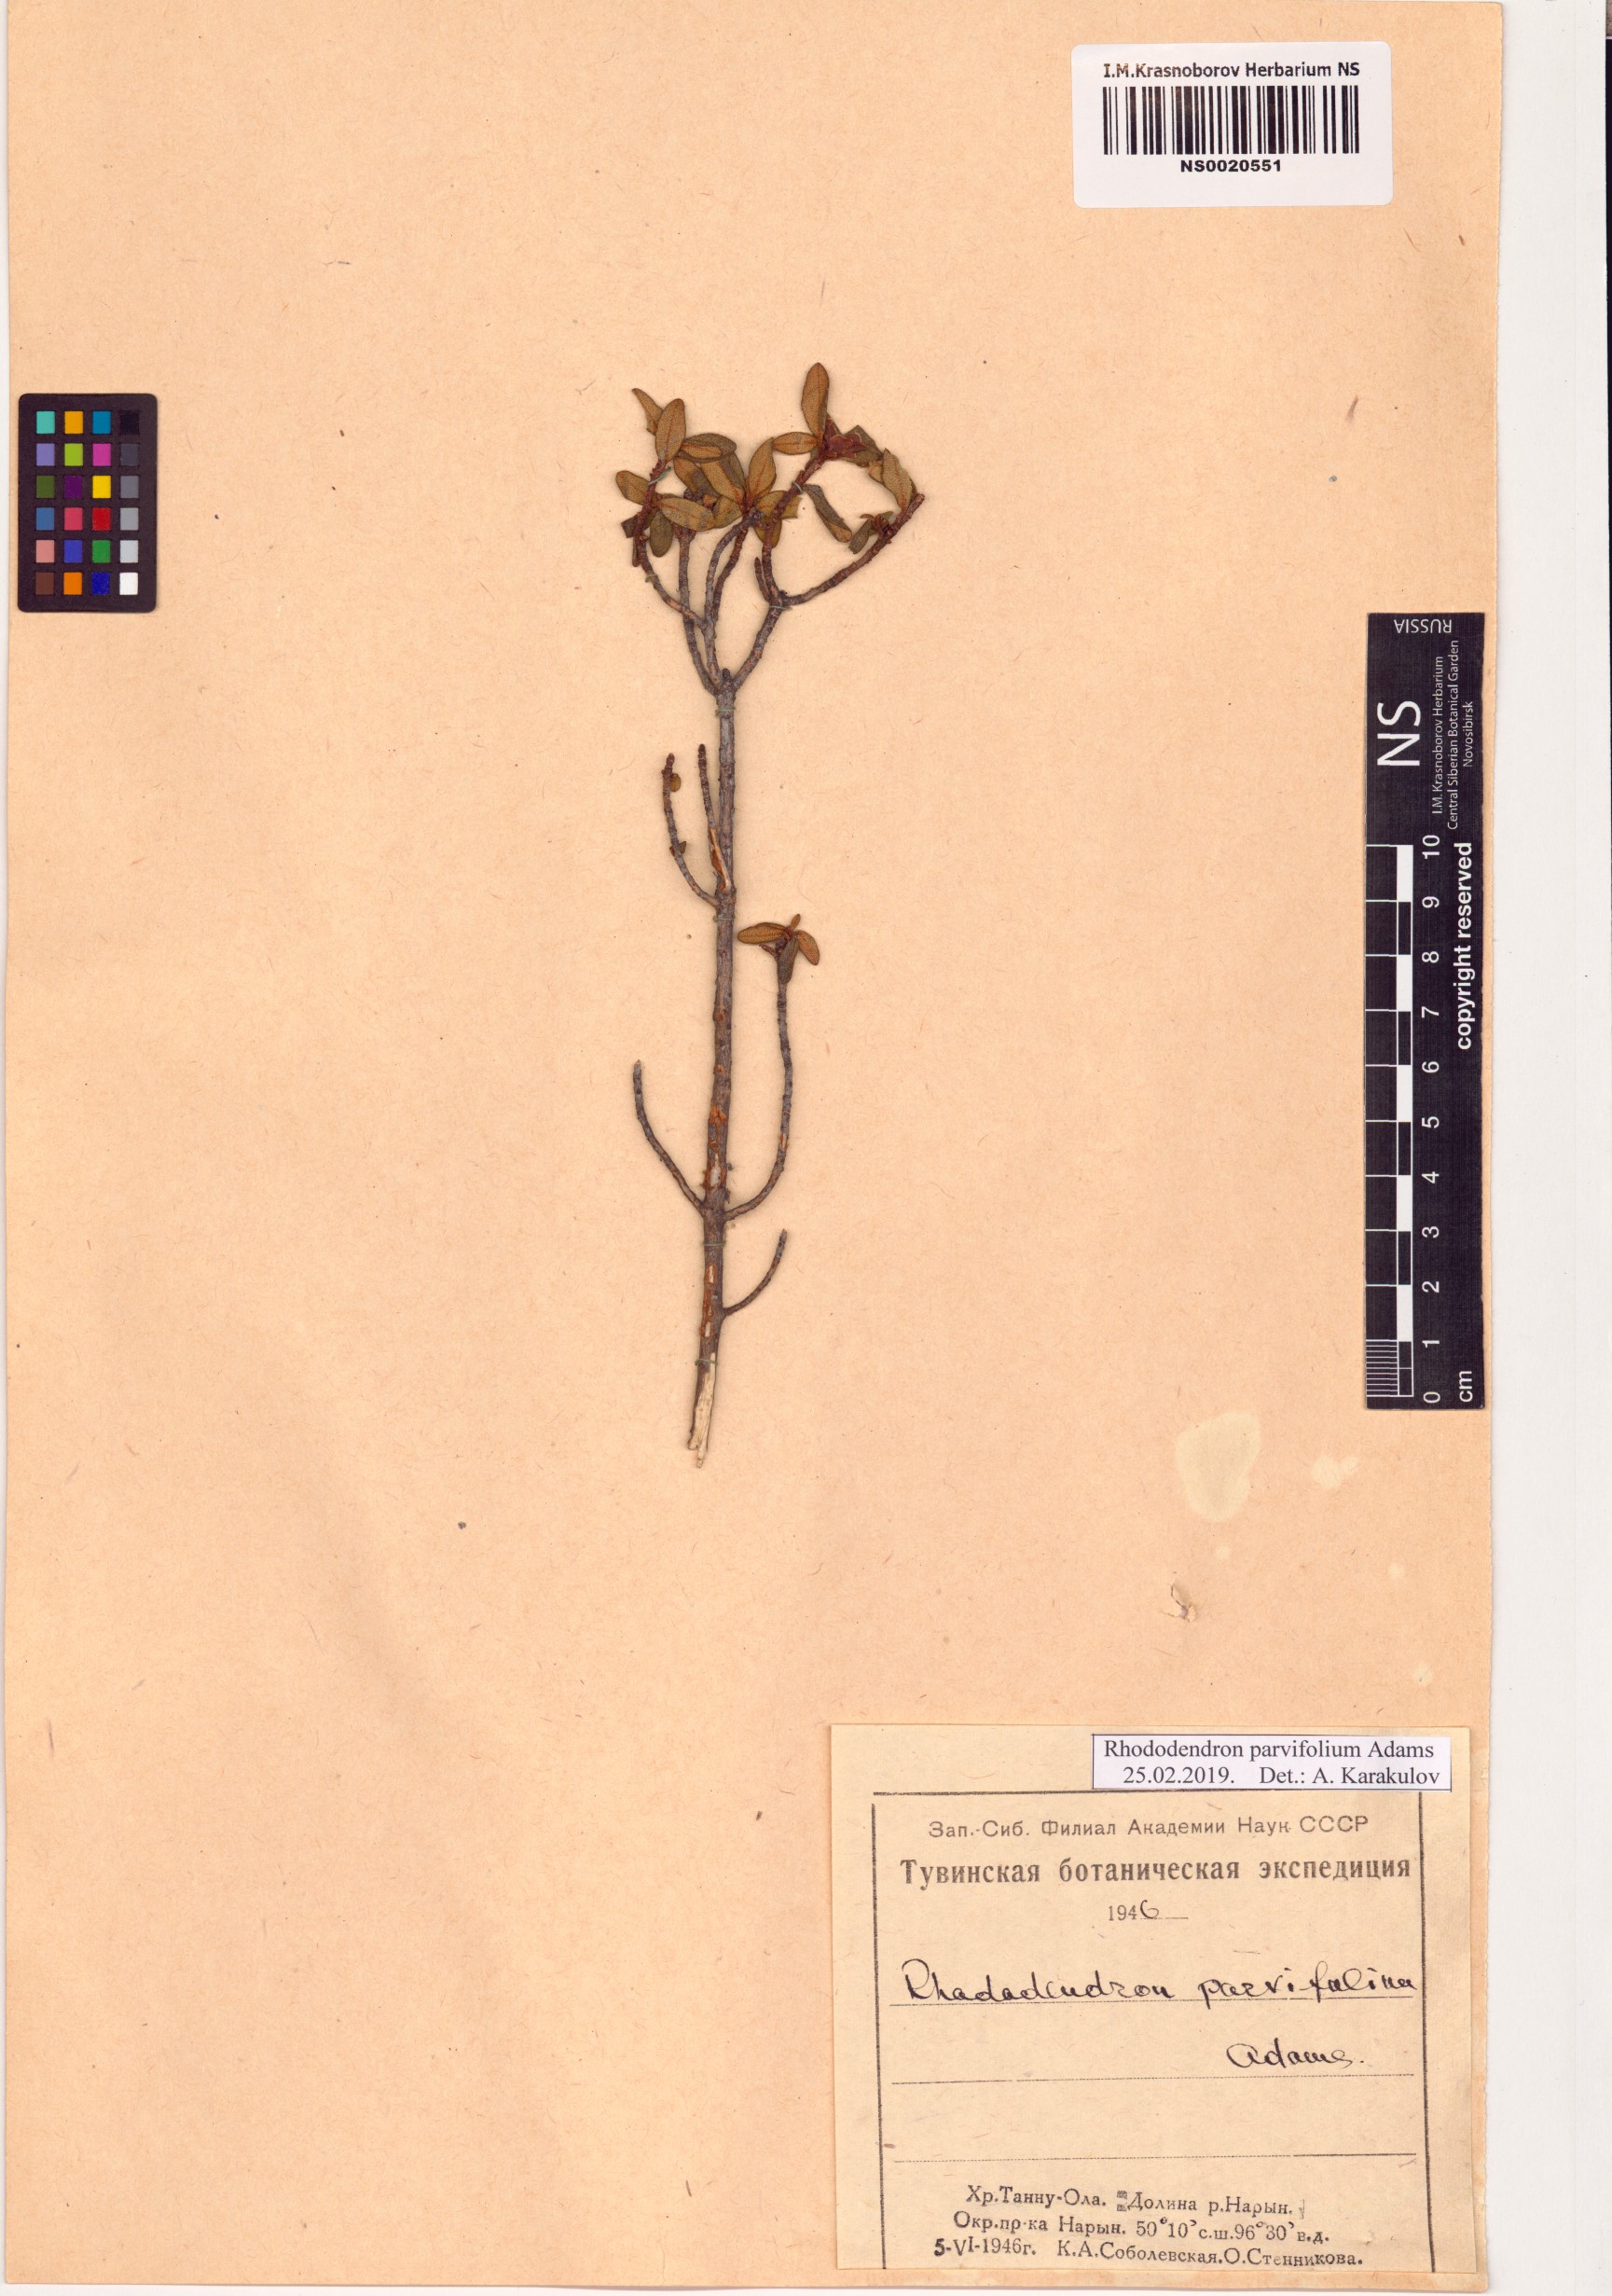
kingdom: Plantae
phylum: Tracheophyta
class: Magnoliopsida
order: Ericales
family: Ericaceae
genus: Rhododendron
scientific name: Rhododendron parvifolium
